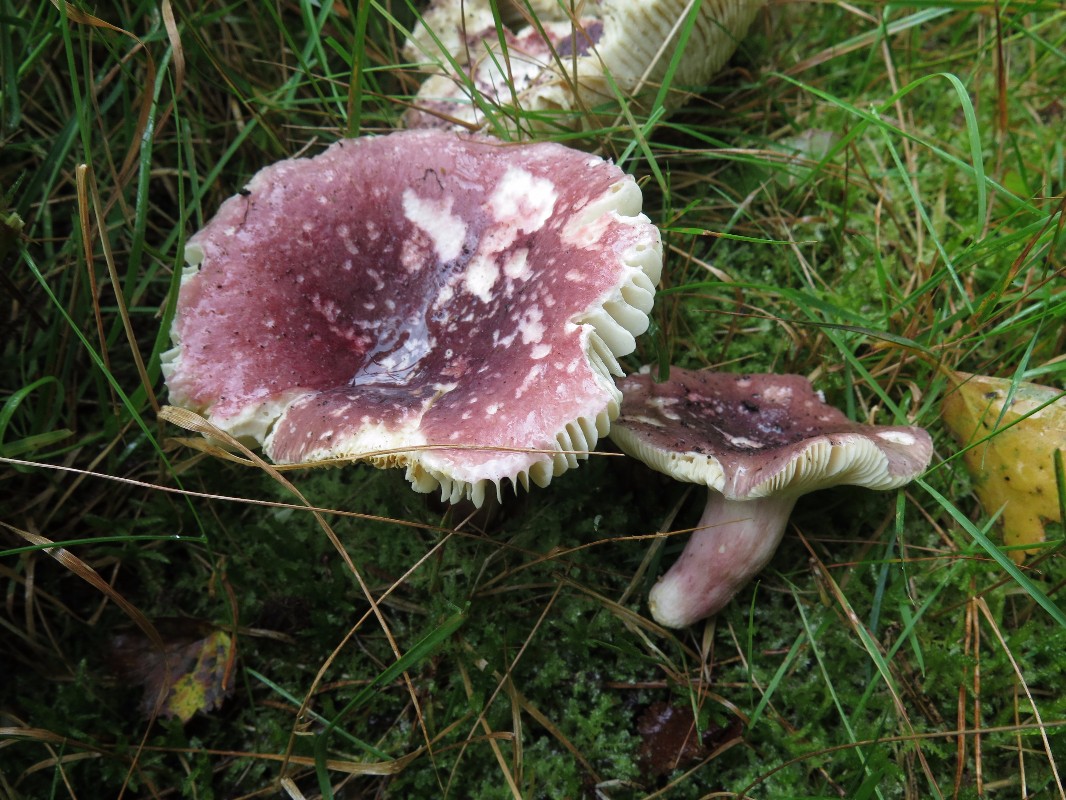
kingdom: Fungi
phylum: Basidiomycota
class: Agaricomycetes
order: Russulales
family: Russulaceae
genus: Russula
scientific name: Russula sardonia
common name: citronbladet skørhat
